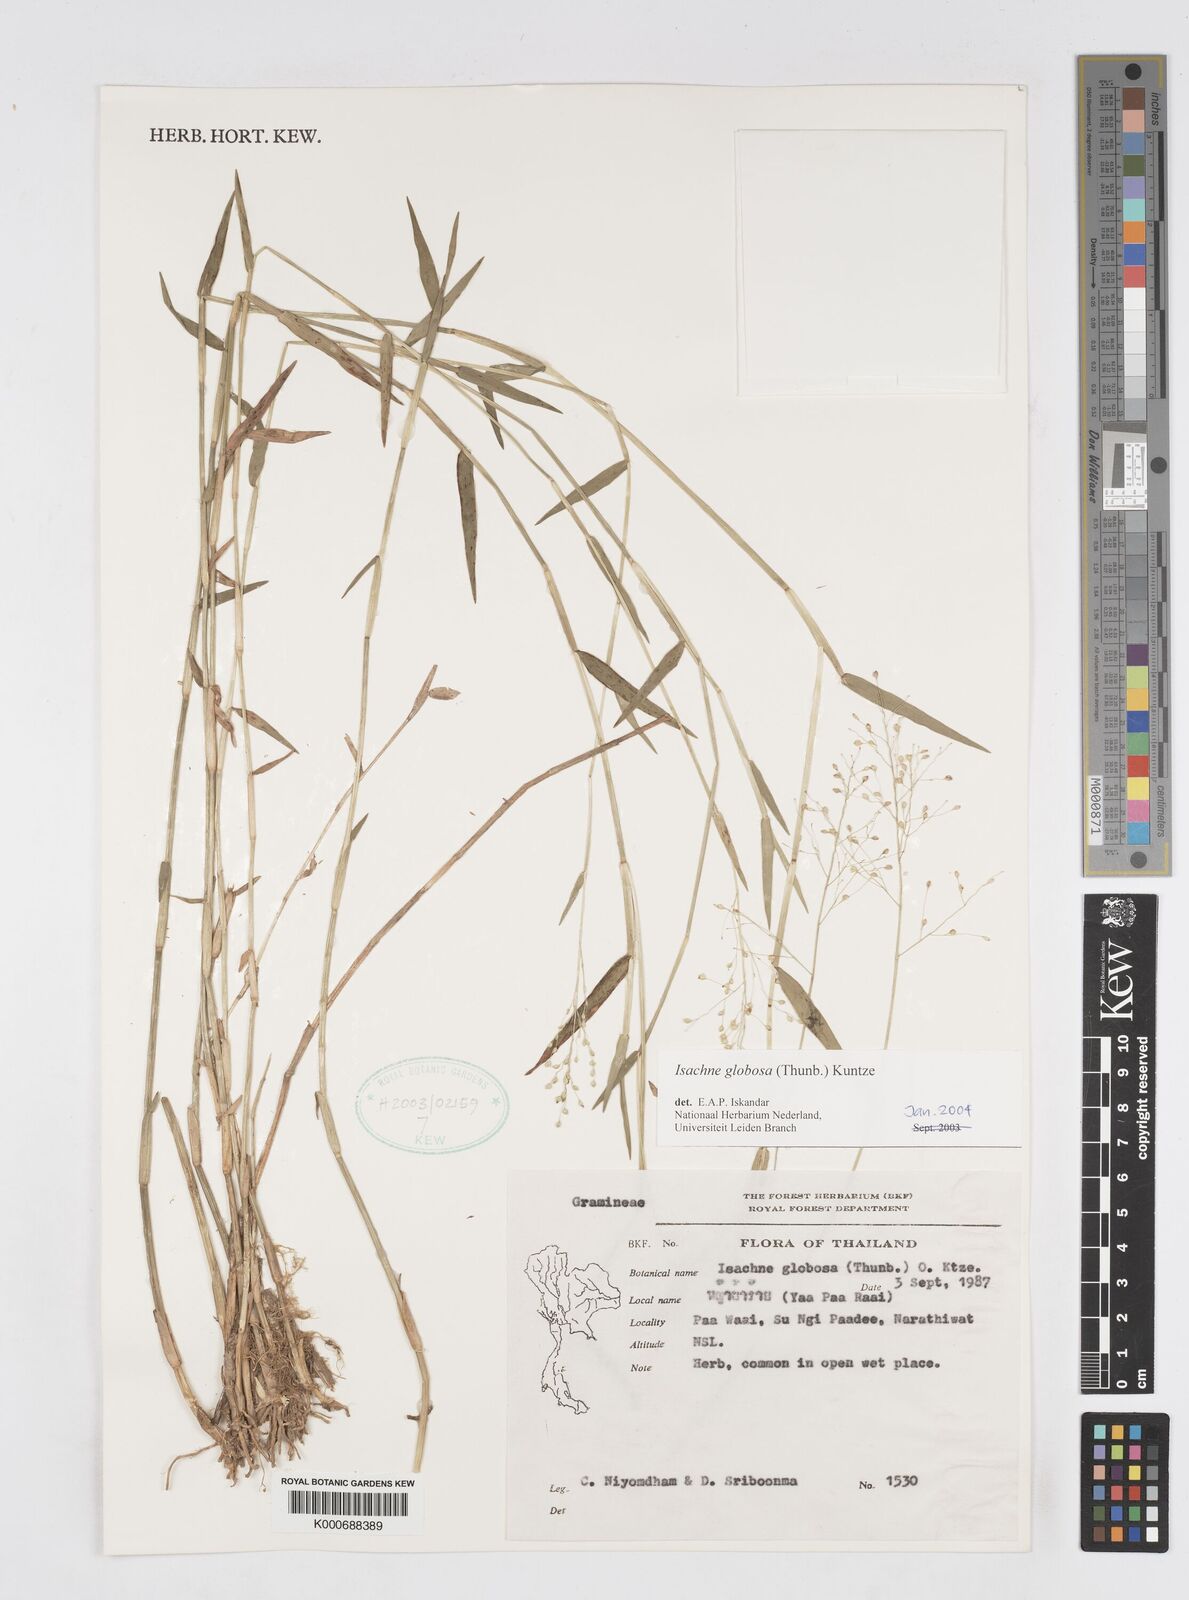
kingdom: Plantae
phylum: Tracheophyta
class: Liliopsida
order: Poales
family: Poaceae
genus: Isachne
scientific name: Isachne globosa
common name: Swamp millet
